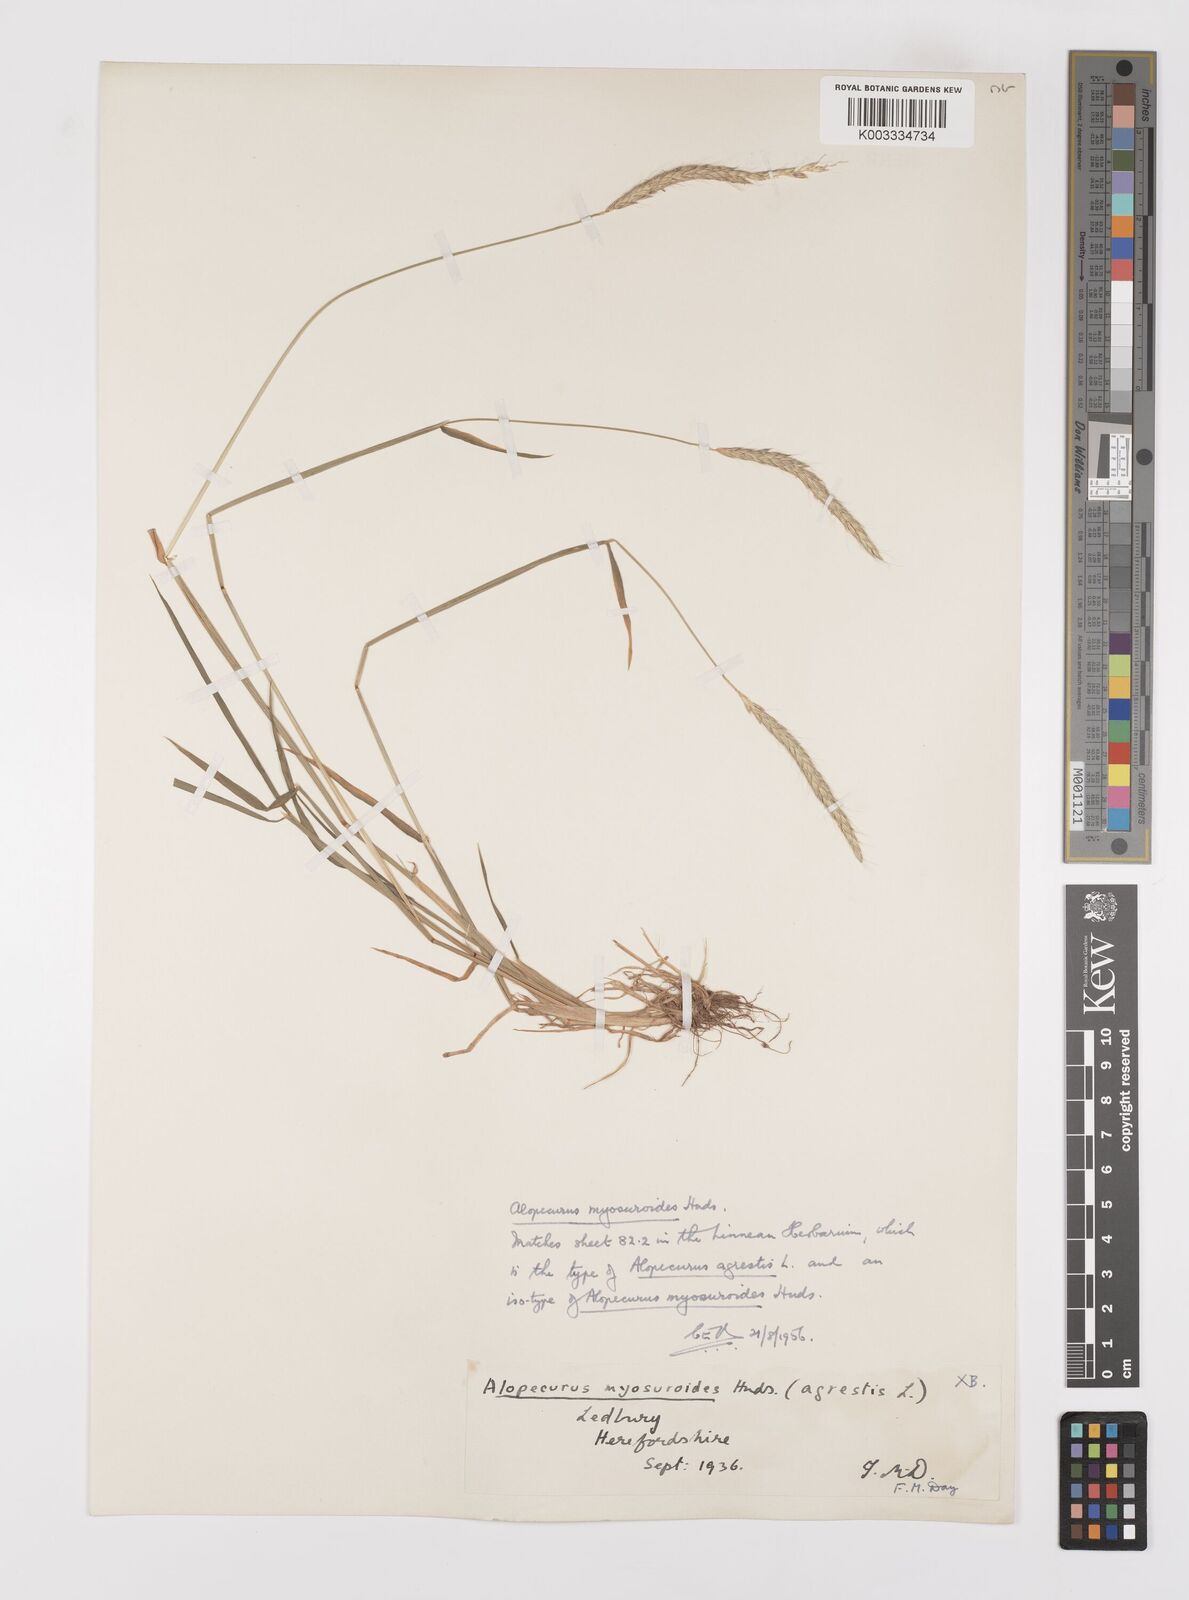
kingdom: Plantae
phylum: Tracheophyta
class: Liliopsida
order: Poales
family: Poaceae
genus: Alopecurus
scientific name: Alopecurus myosuroides
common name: Black-grass
